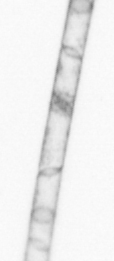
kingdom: Chromista
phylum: Ochrophyta
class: Bacillariophyceae
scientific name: Bacillariophyceae
